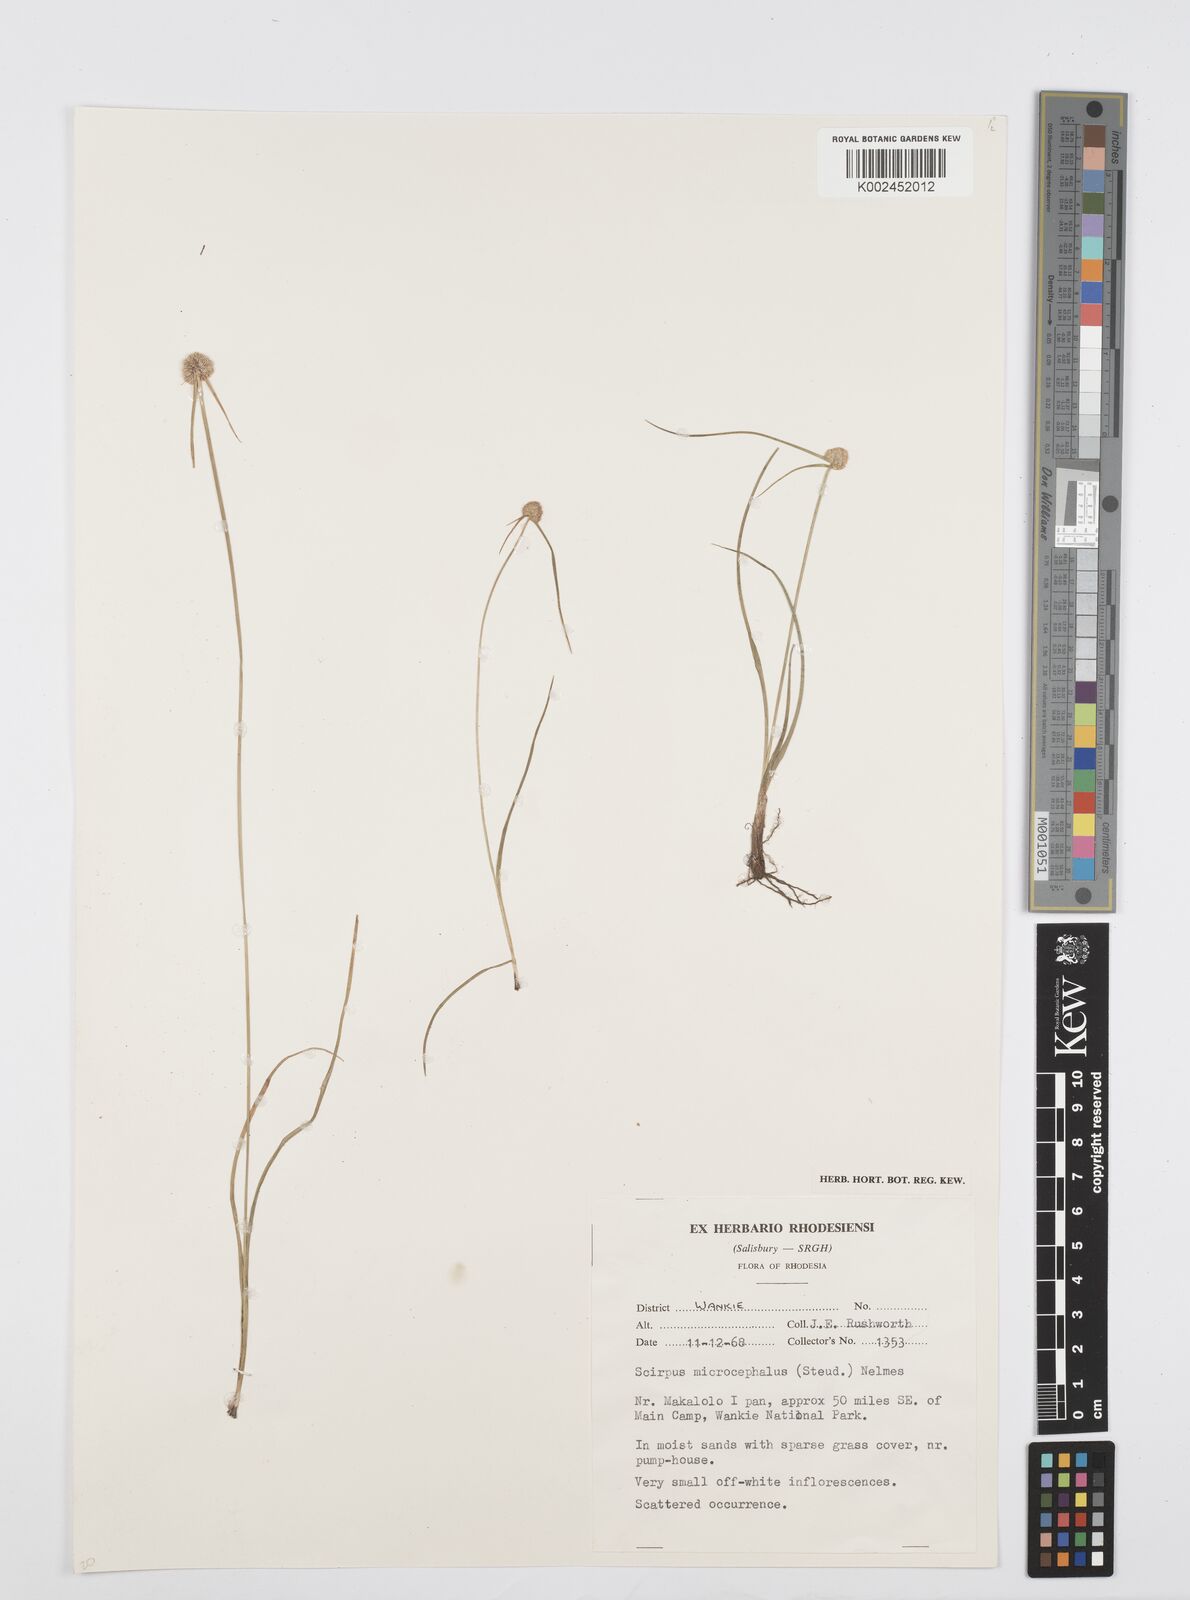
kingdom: Plantae
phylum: Tracheophyta
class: Liliopsida
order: Poales
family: Cyperaceae
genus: Cyperus
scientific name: Cyperus conglobatus
